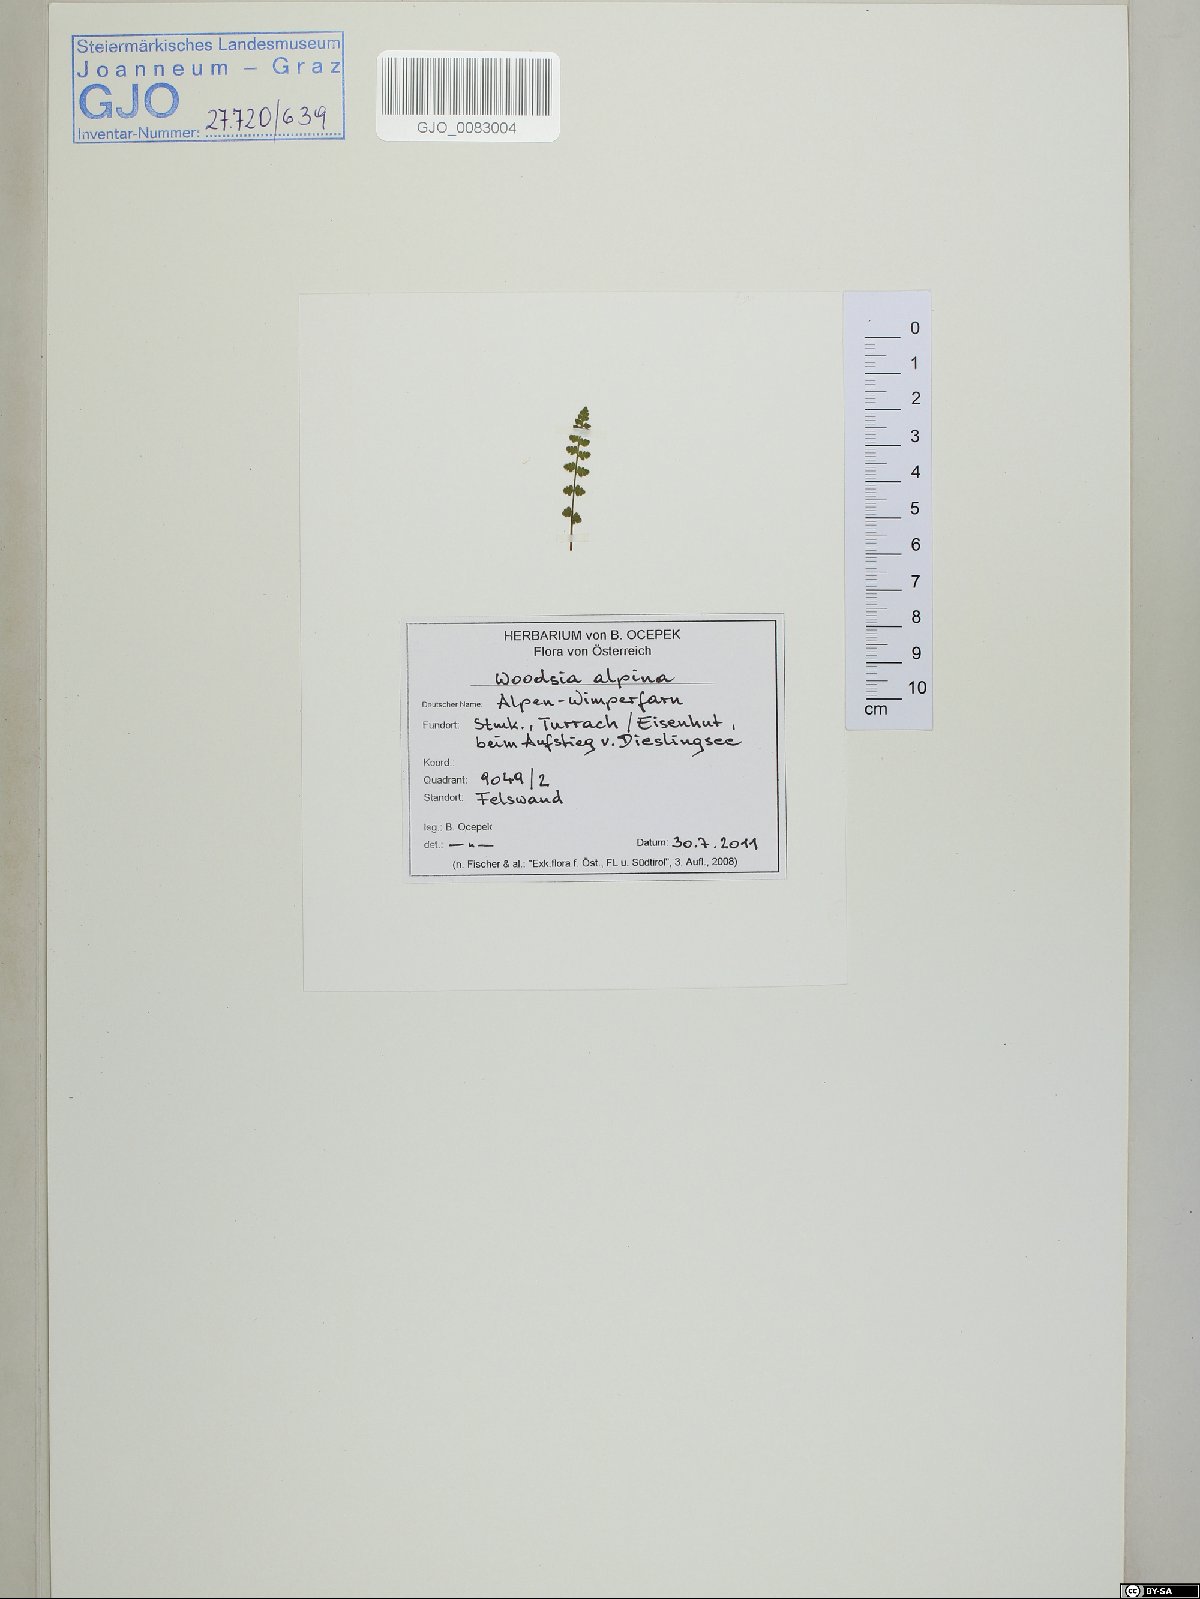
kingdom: Plantae
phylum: Tracheophyta
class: Polypodiopsida
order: Polypodiales
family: Woodsiaceae
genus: Woodsia
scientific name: Woodsia alpina
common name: Alpine woodsia
